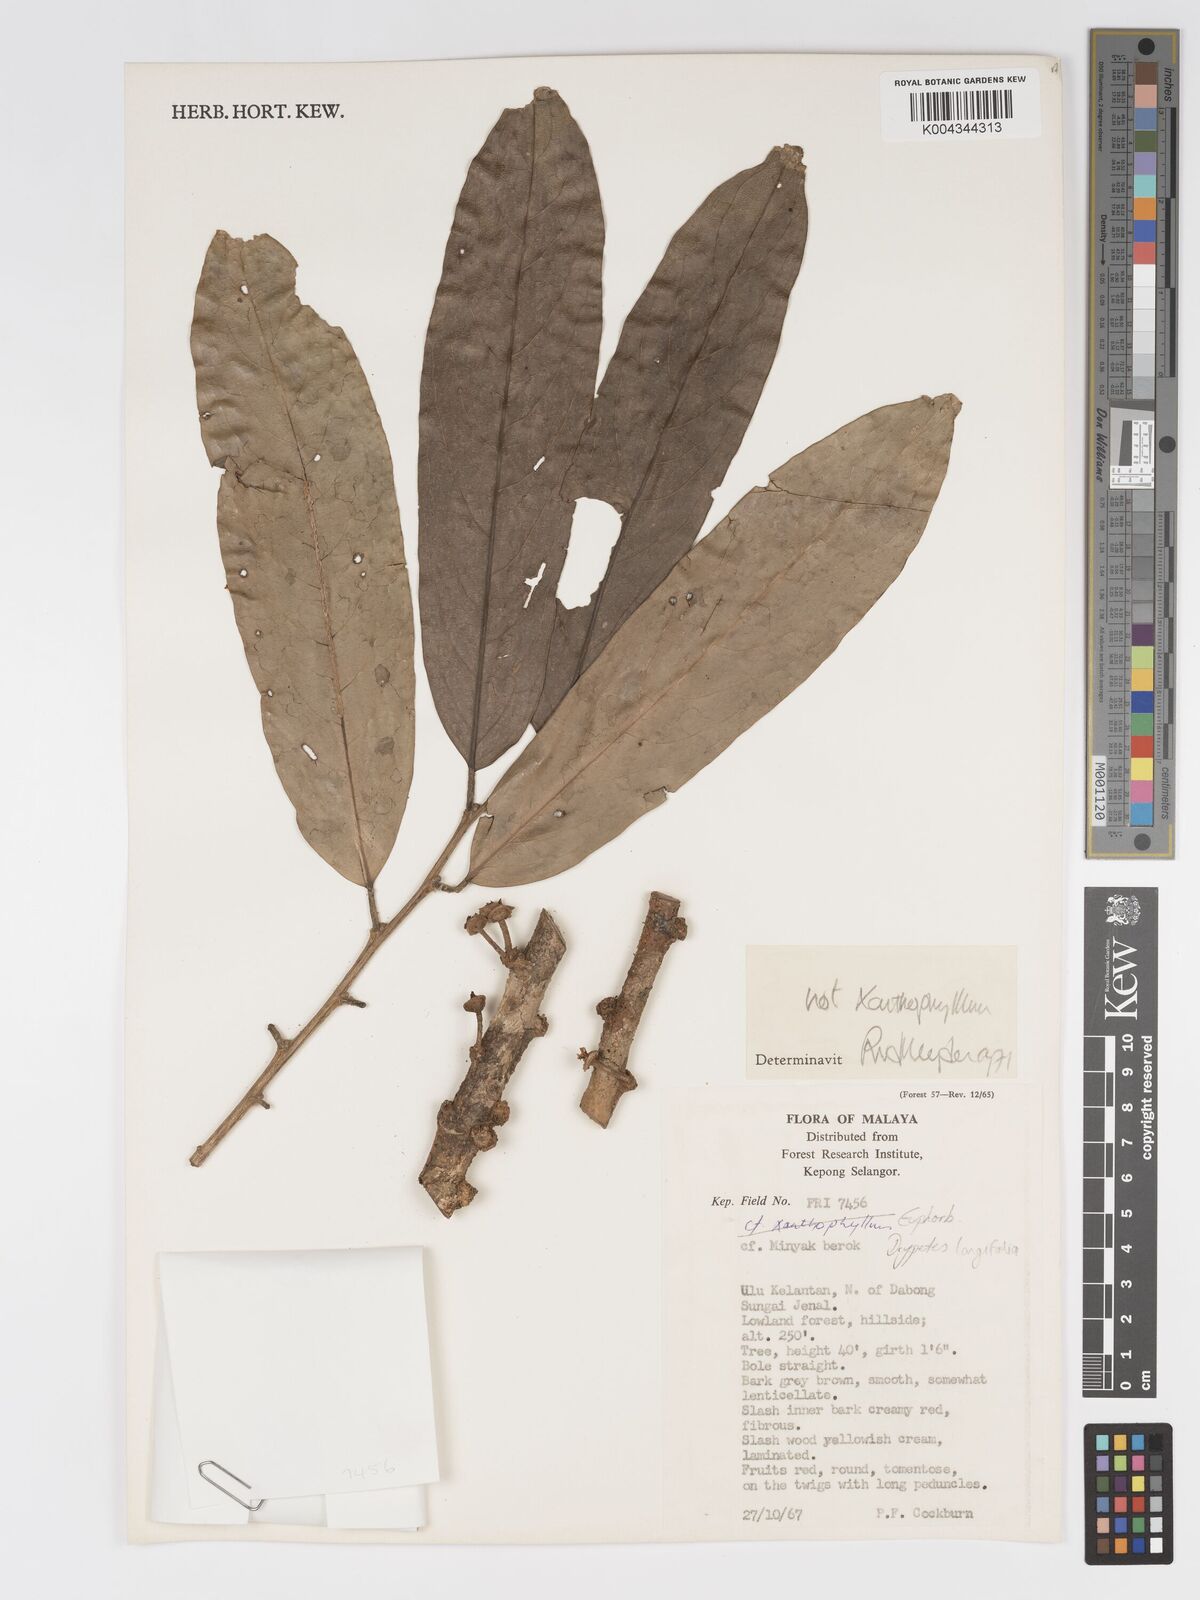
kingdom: Plantae
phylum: Tracheophyta
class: Magnoliopsida
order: Malpighiales
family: Putranjivaceae
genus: Drypetes
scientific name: Drypetes longifolia
